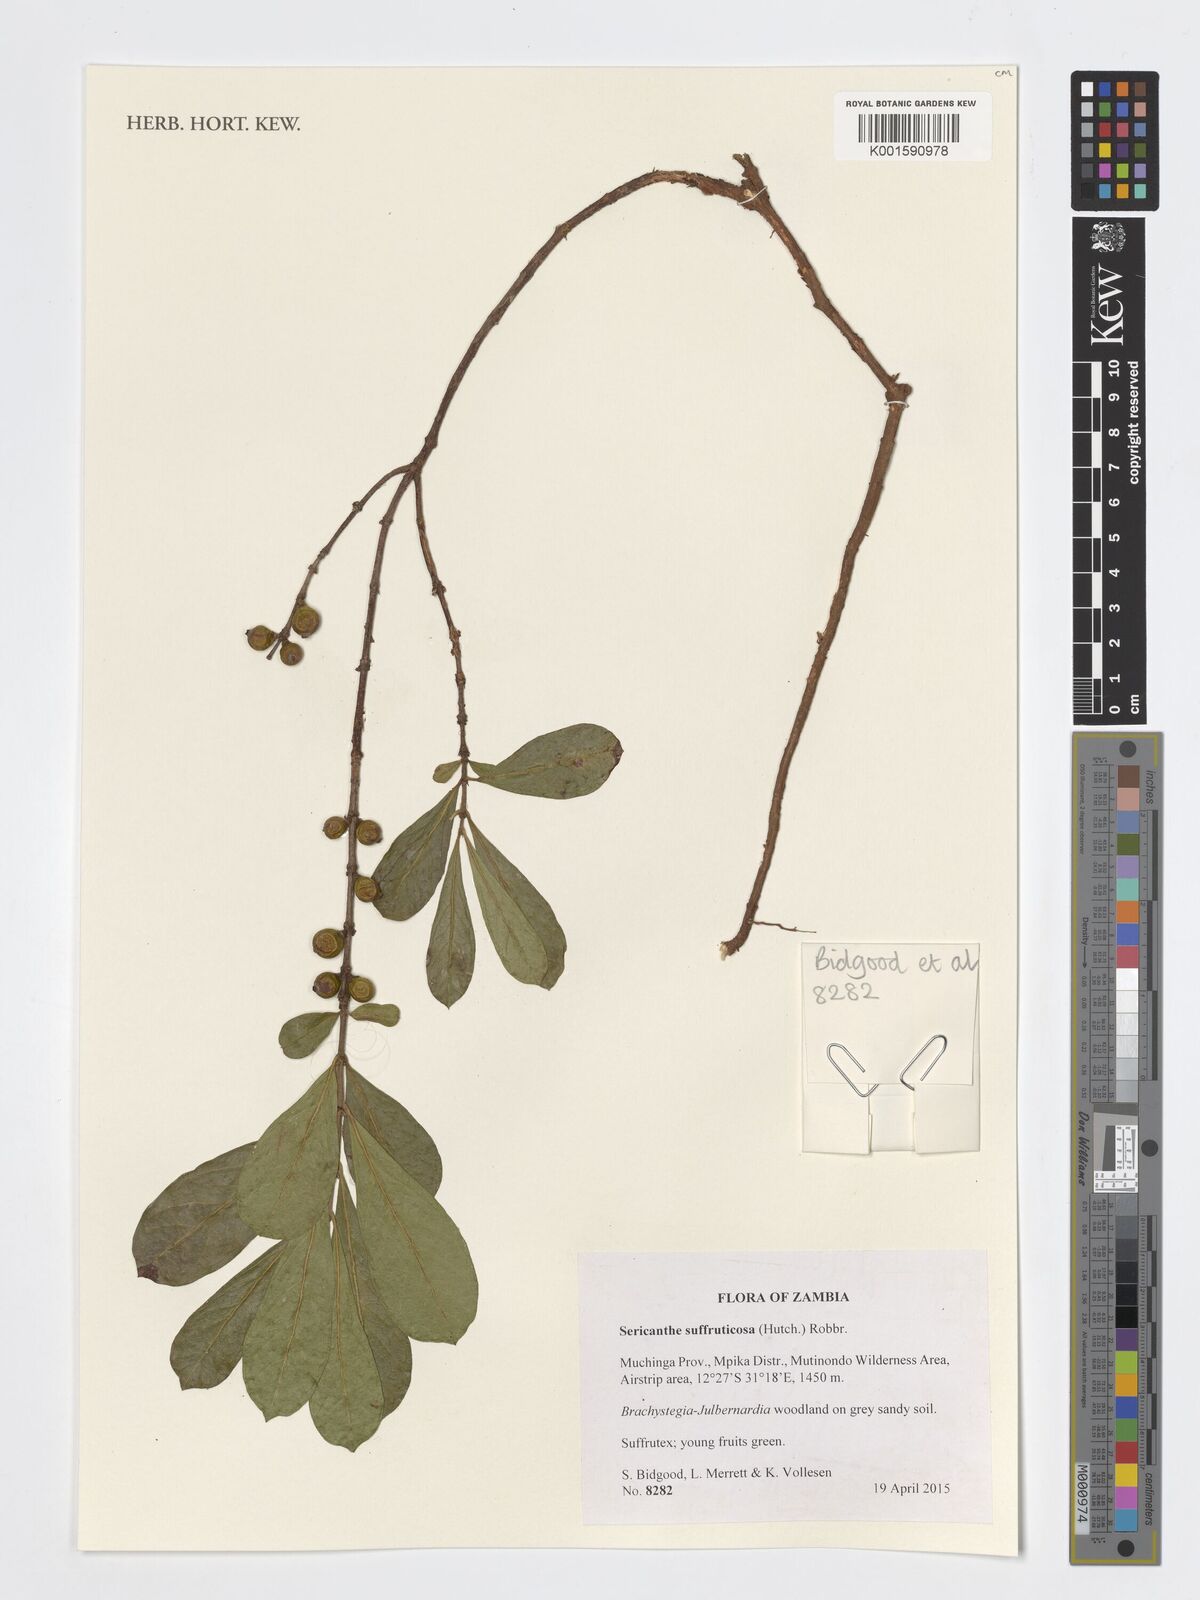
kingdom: Plantae
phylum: Tracheophyta
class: Magnoliopsida
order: Gentianales
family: Rubiaceae
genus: Sericanthe
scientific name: Sericanthe suffruticosa
